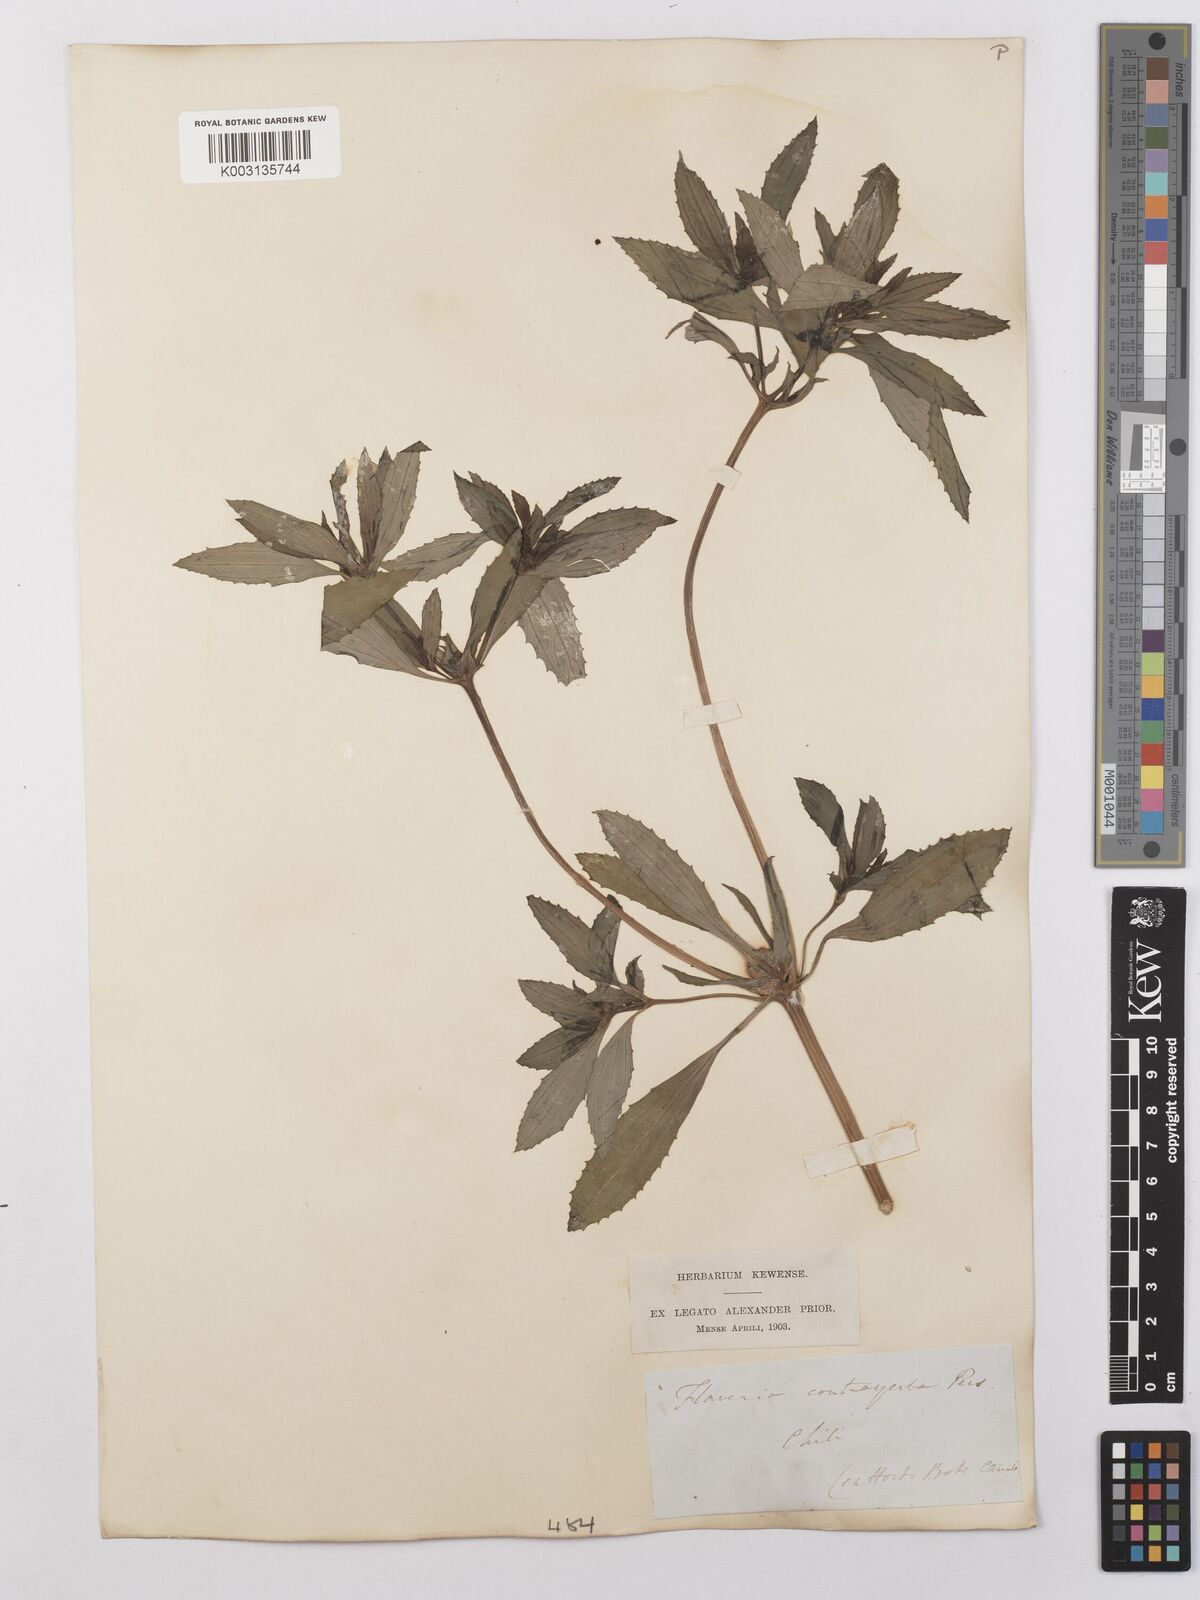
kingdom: Plantae
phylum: Tracheophyta
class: Magnoliopsida
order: Asterales
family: Asteraceae
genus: Flaveria
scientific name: Flaveria bidentis
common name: Coastal plain yellowtops
